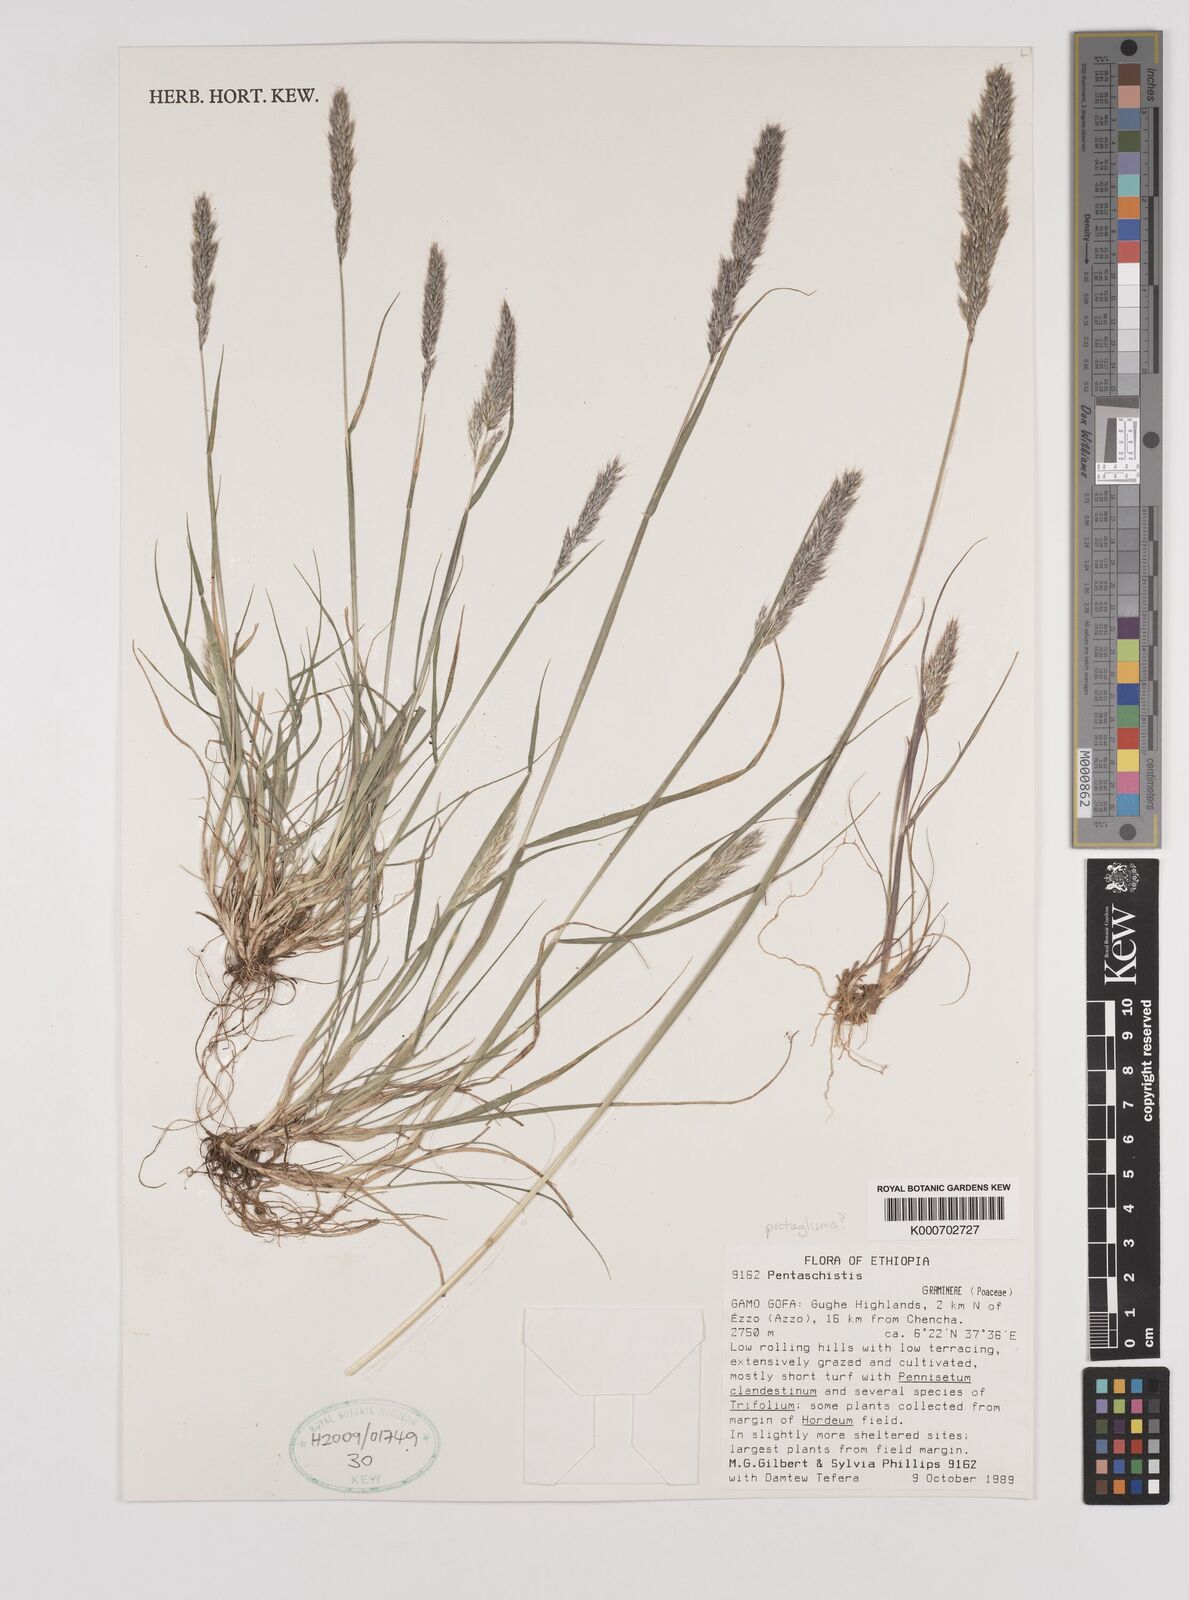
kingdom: Plantae
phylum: Tracheophyta
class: Liliopsida
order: Poales
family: Poaceae
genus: Pentameris
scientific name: Pentameris pictigluma
